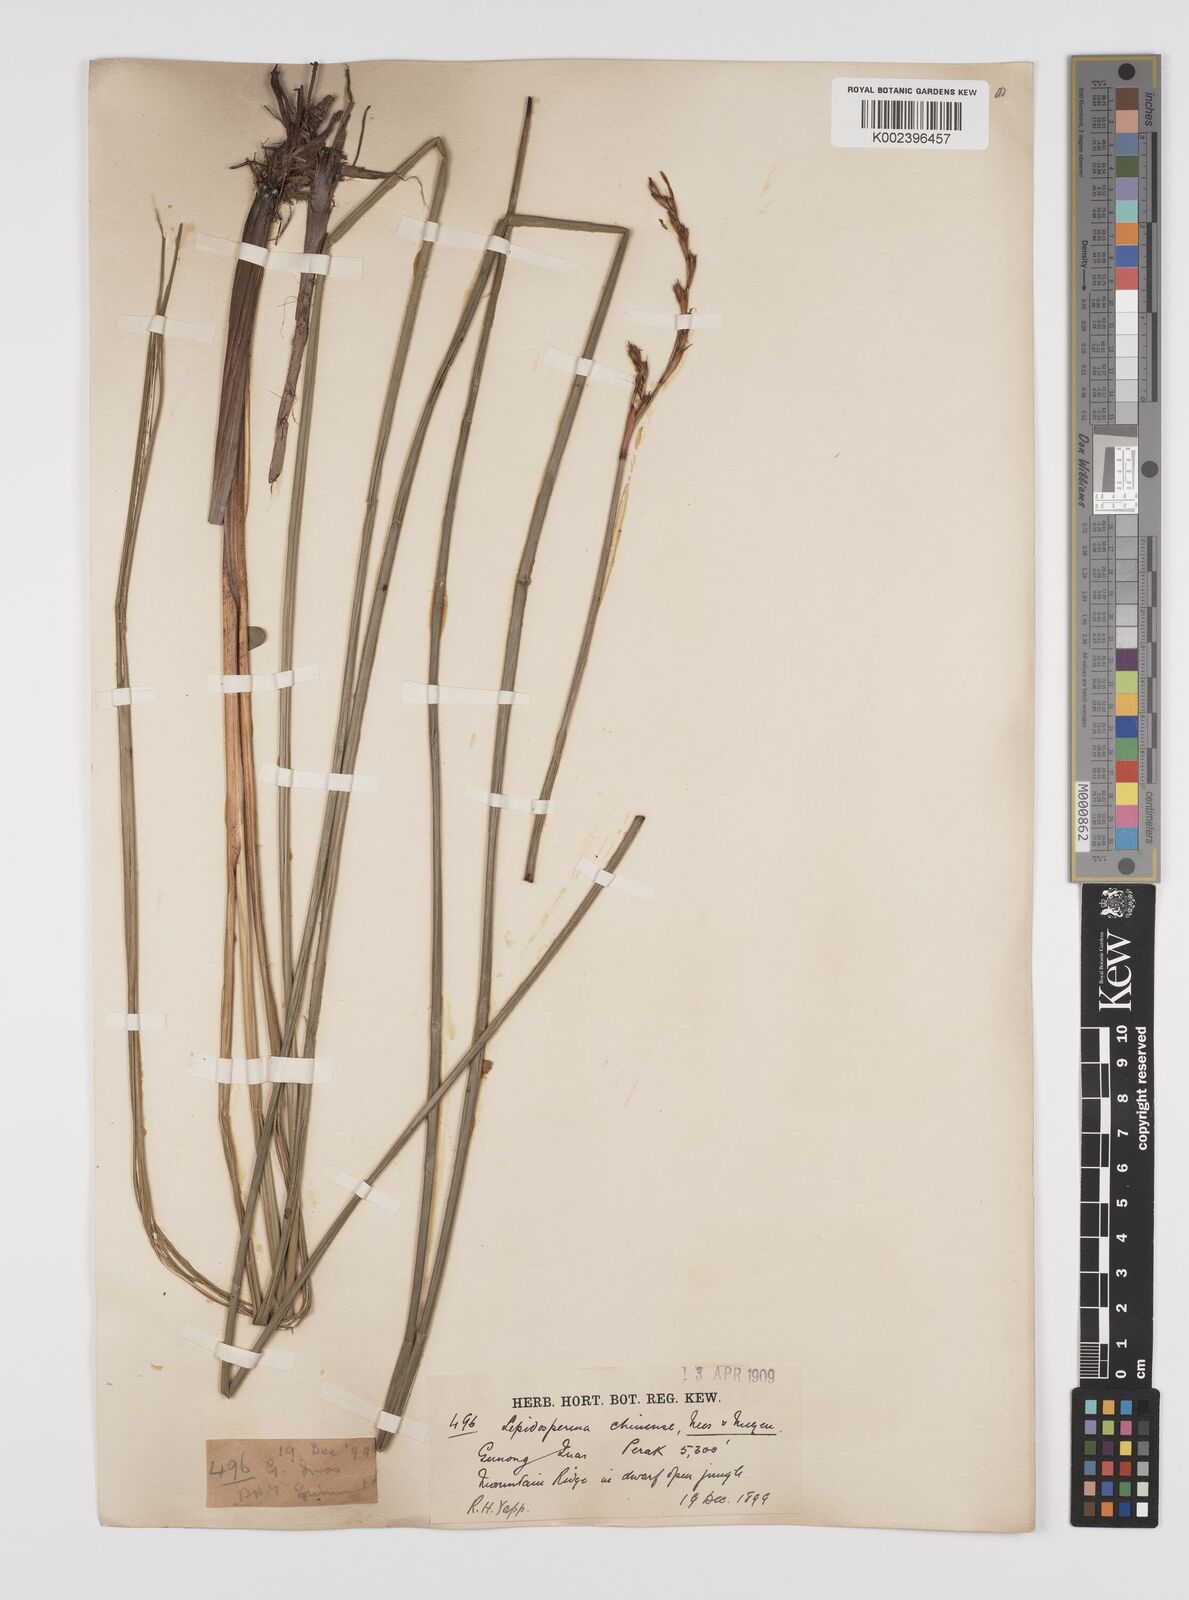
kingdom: Plantae
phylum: Tracheophyta
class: Liliopsida
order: Poales
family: Cyperaceae
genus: Lepidosperma
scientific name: Lepidosperma chinense
